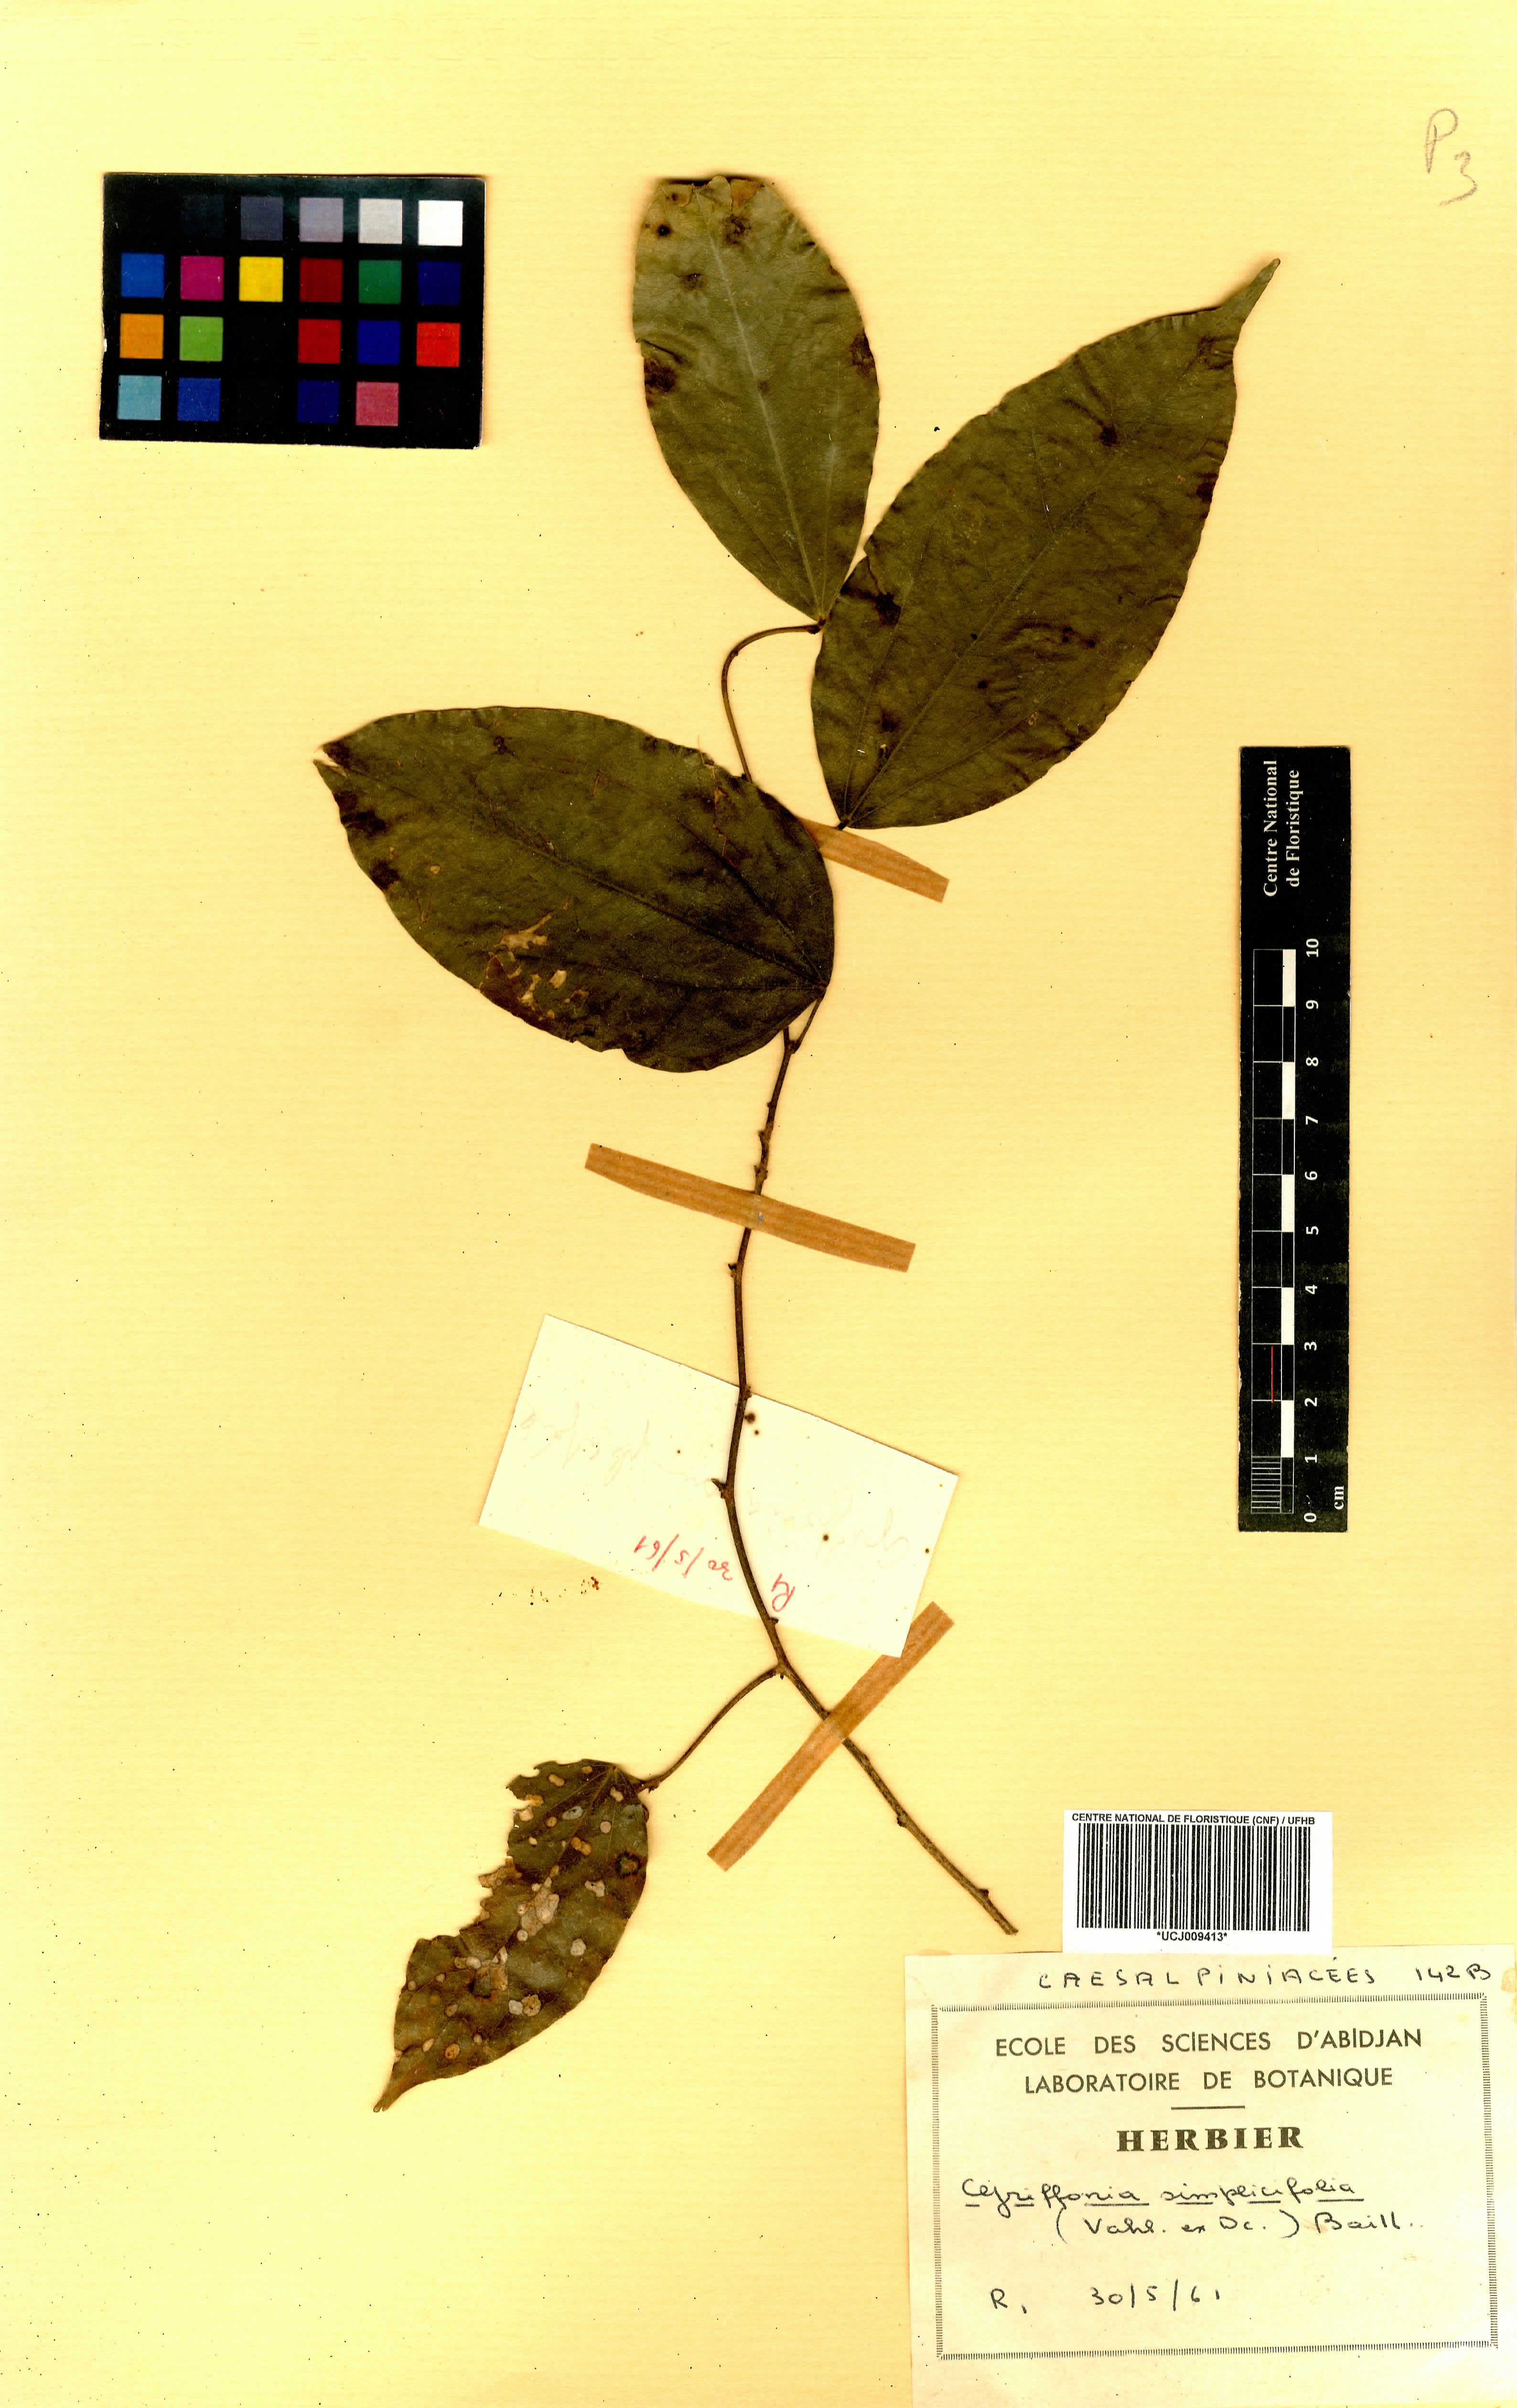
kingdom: Plantae
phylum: Tracheophyta
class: Magnoliopsida
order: Fabales
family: Fabaceae
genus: Griffonia
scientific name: Griffonia simplicifolia
